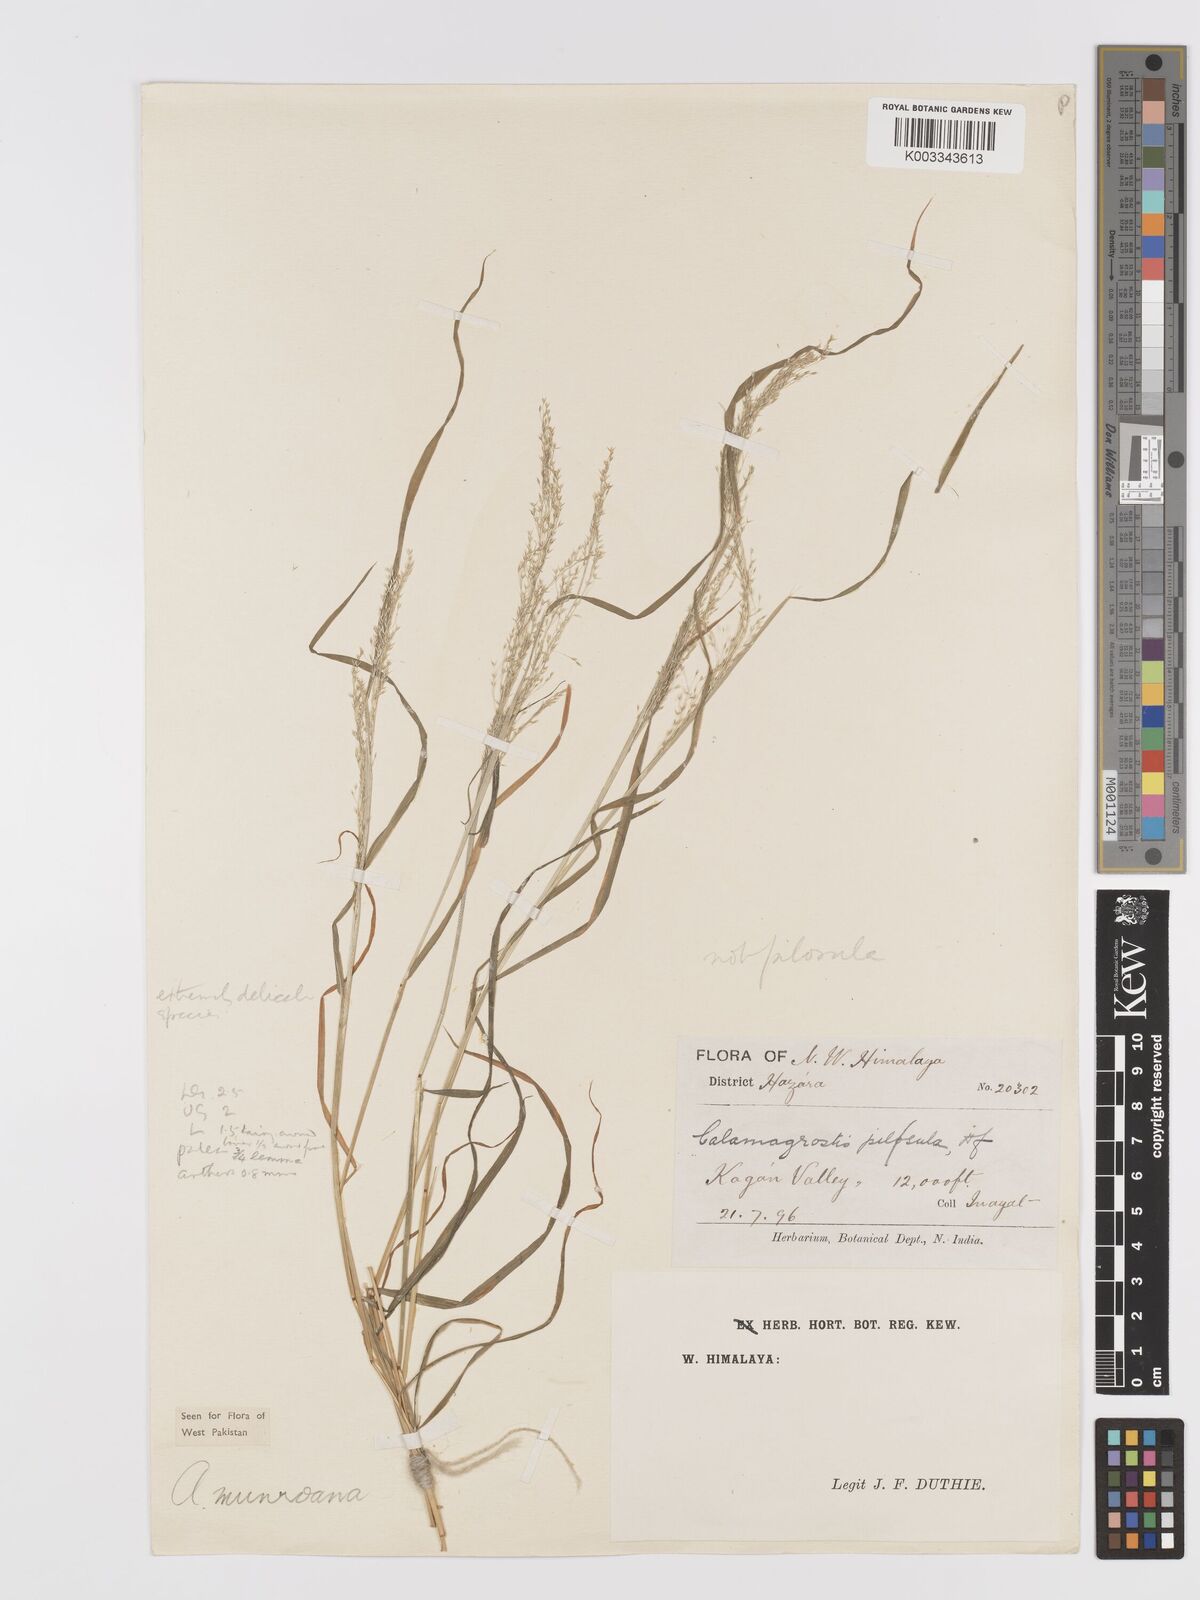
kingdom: Plantae
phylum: Tracheophyta
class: Liliopsida
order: Poales
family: Poaceae
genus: Agrostis
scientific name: Agrostis munroana
